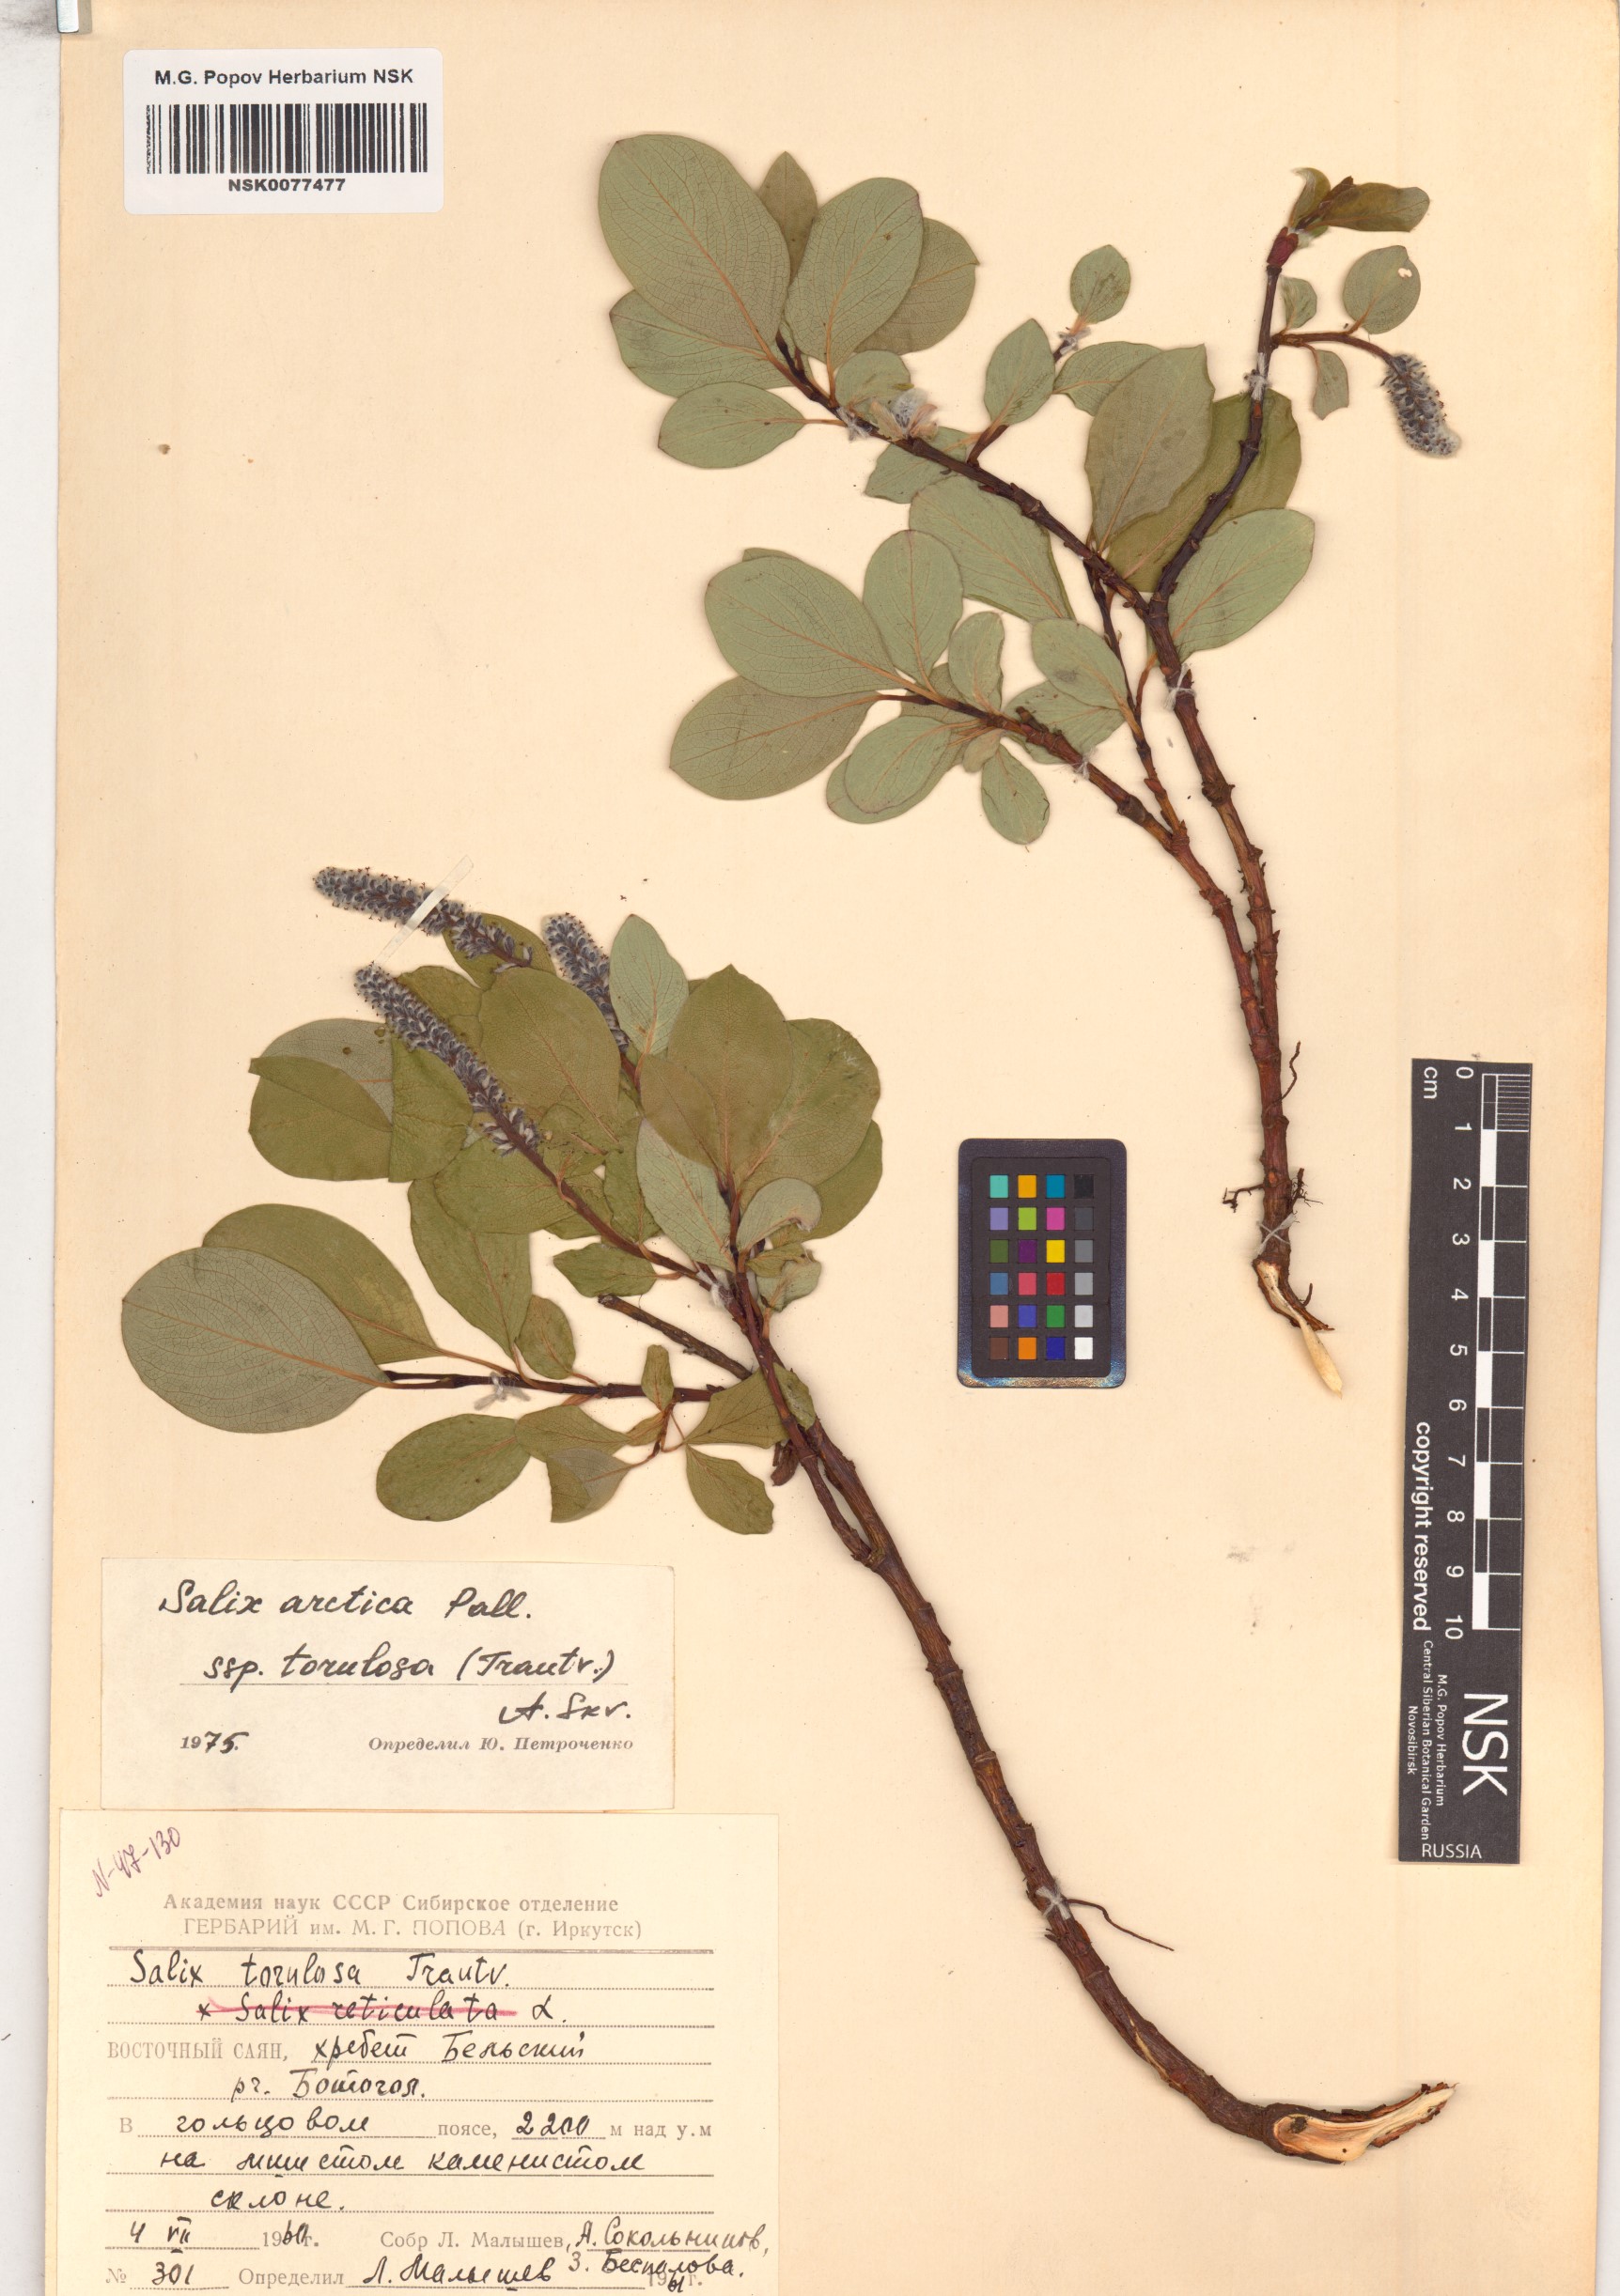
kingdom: Plantae
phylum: Tracheophyta
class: Magnoliopsida
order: Malpighiales
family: Salicaceae
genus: Salix
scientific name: Salix arctica
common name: Arctic willow
